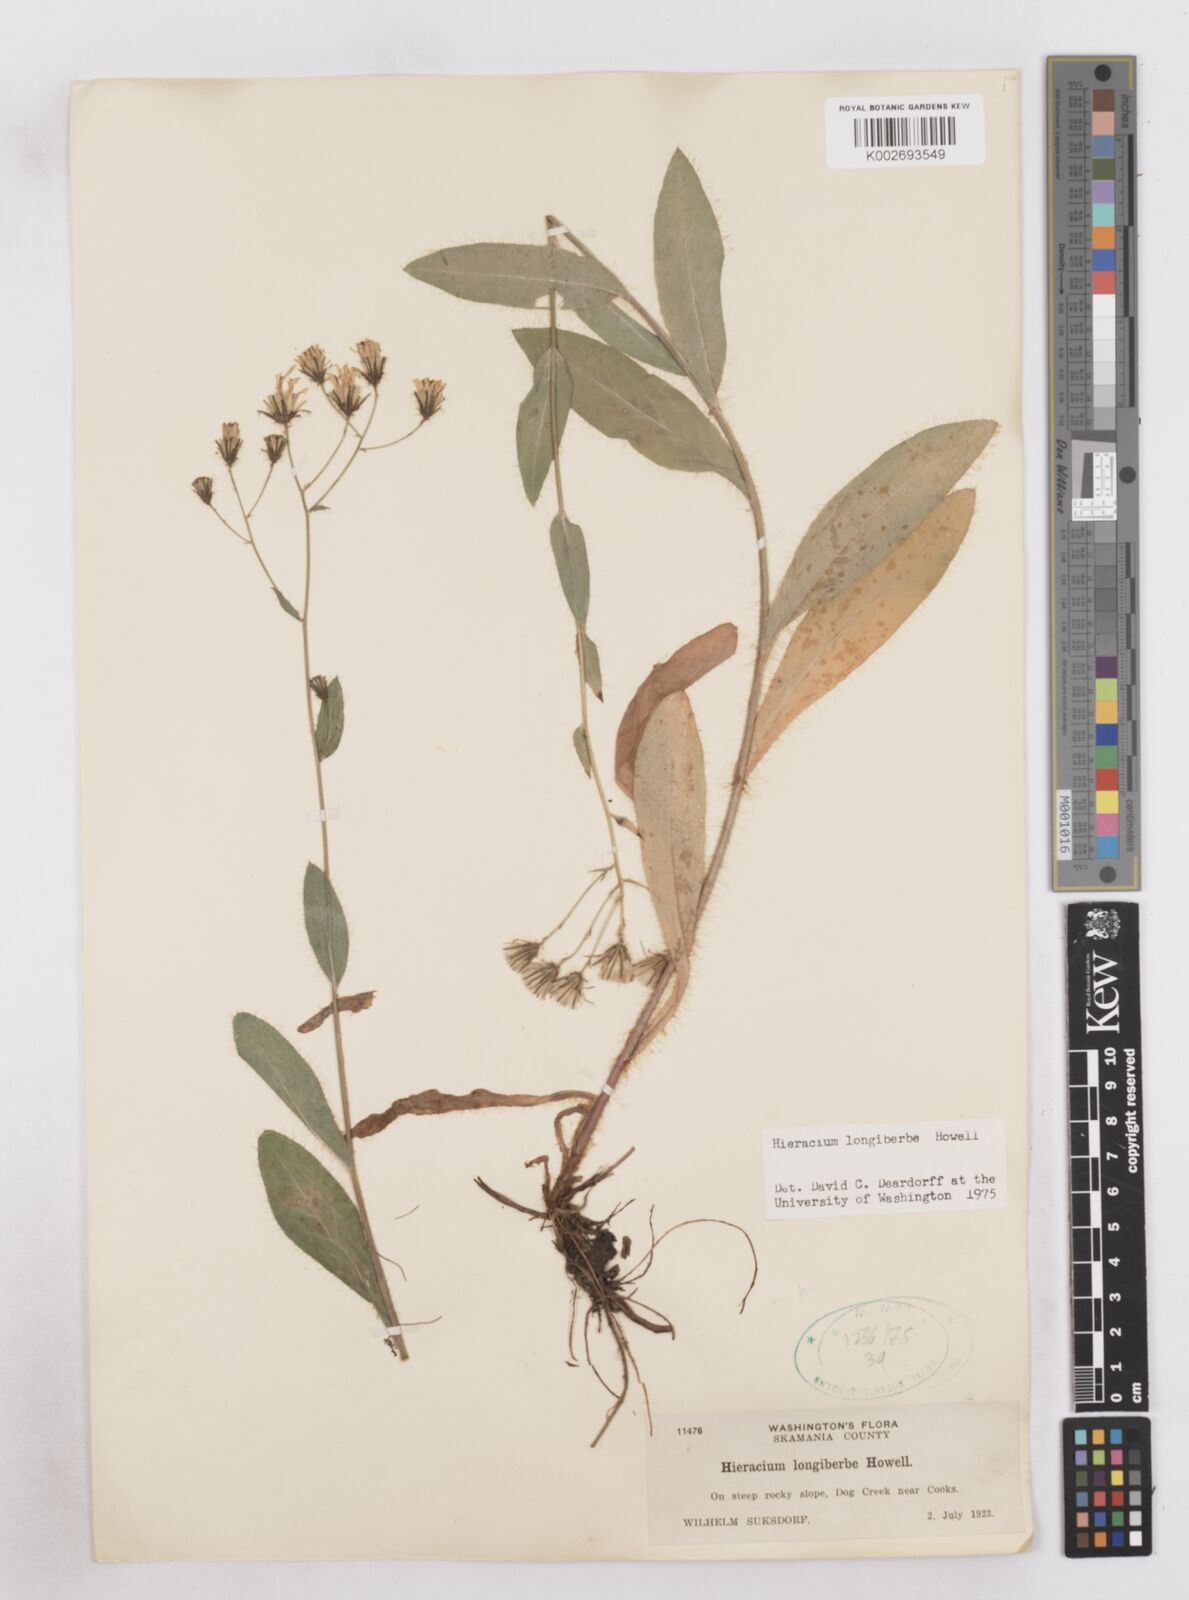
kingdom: Plantae
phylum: Tracheophyta
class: Magnoliopsida
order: Asterales
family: Asteraceae
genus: Hieracium
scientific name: Hieracium longiberbe
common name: Long-bearded hawkweed
